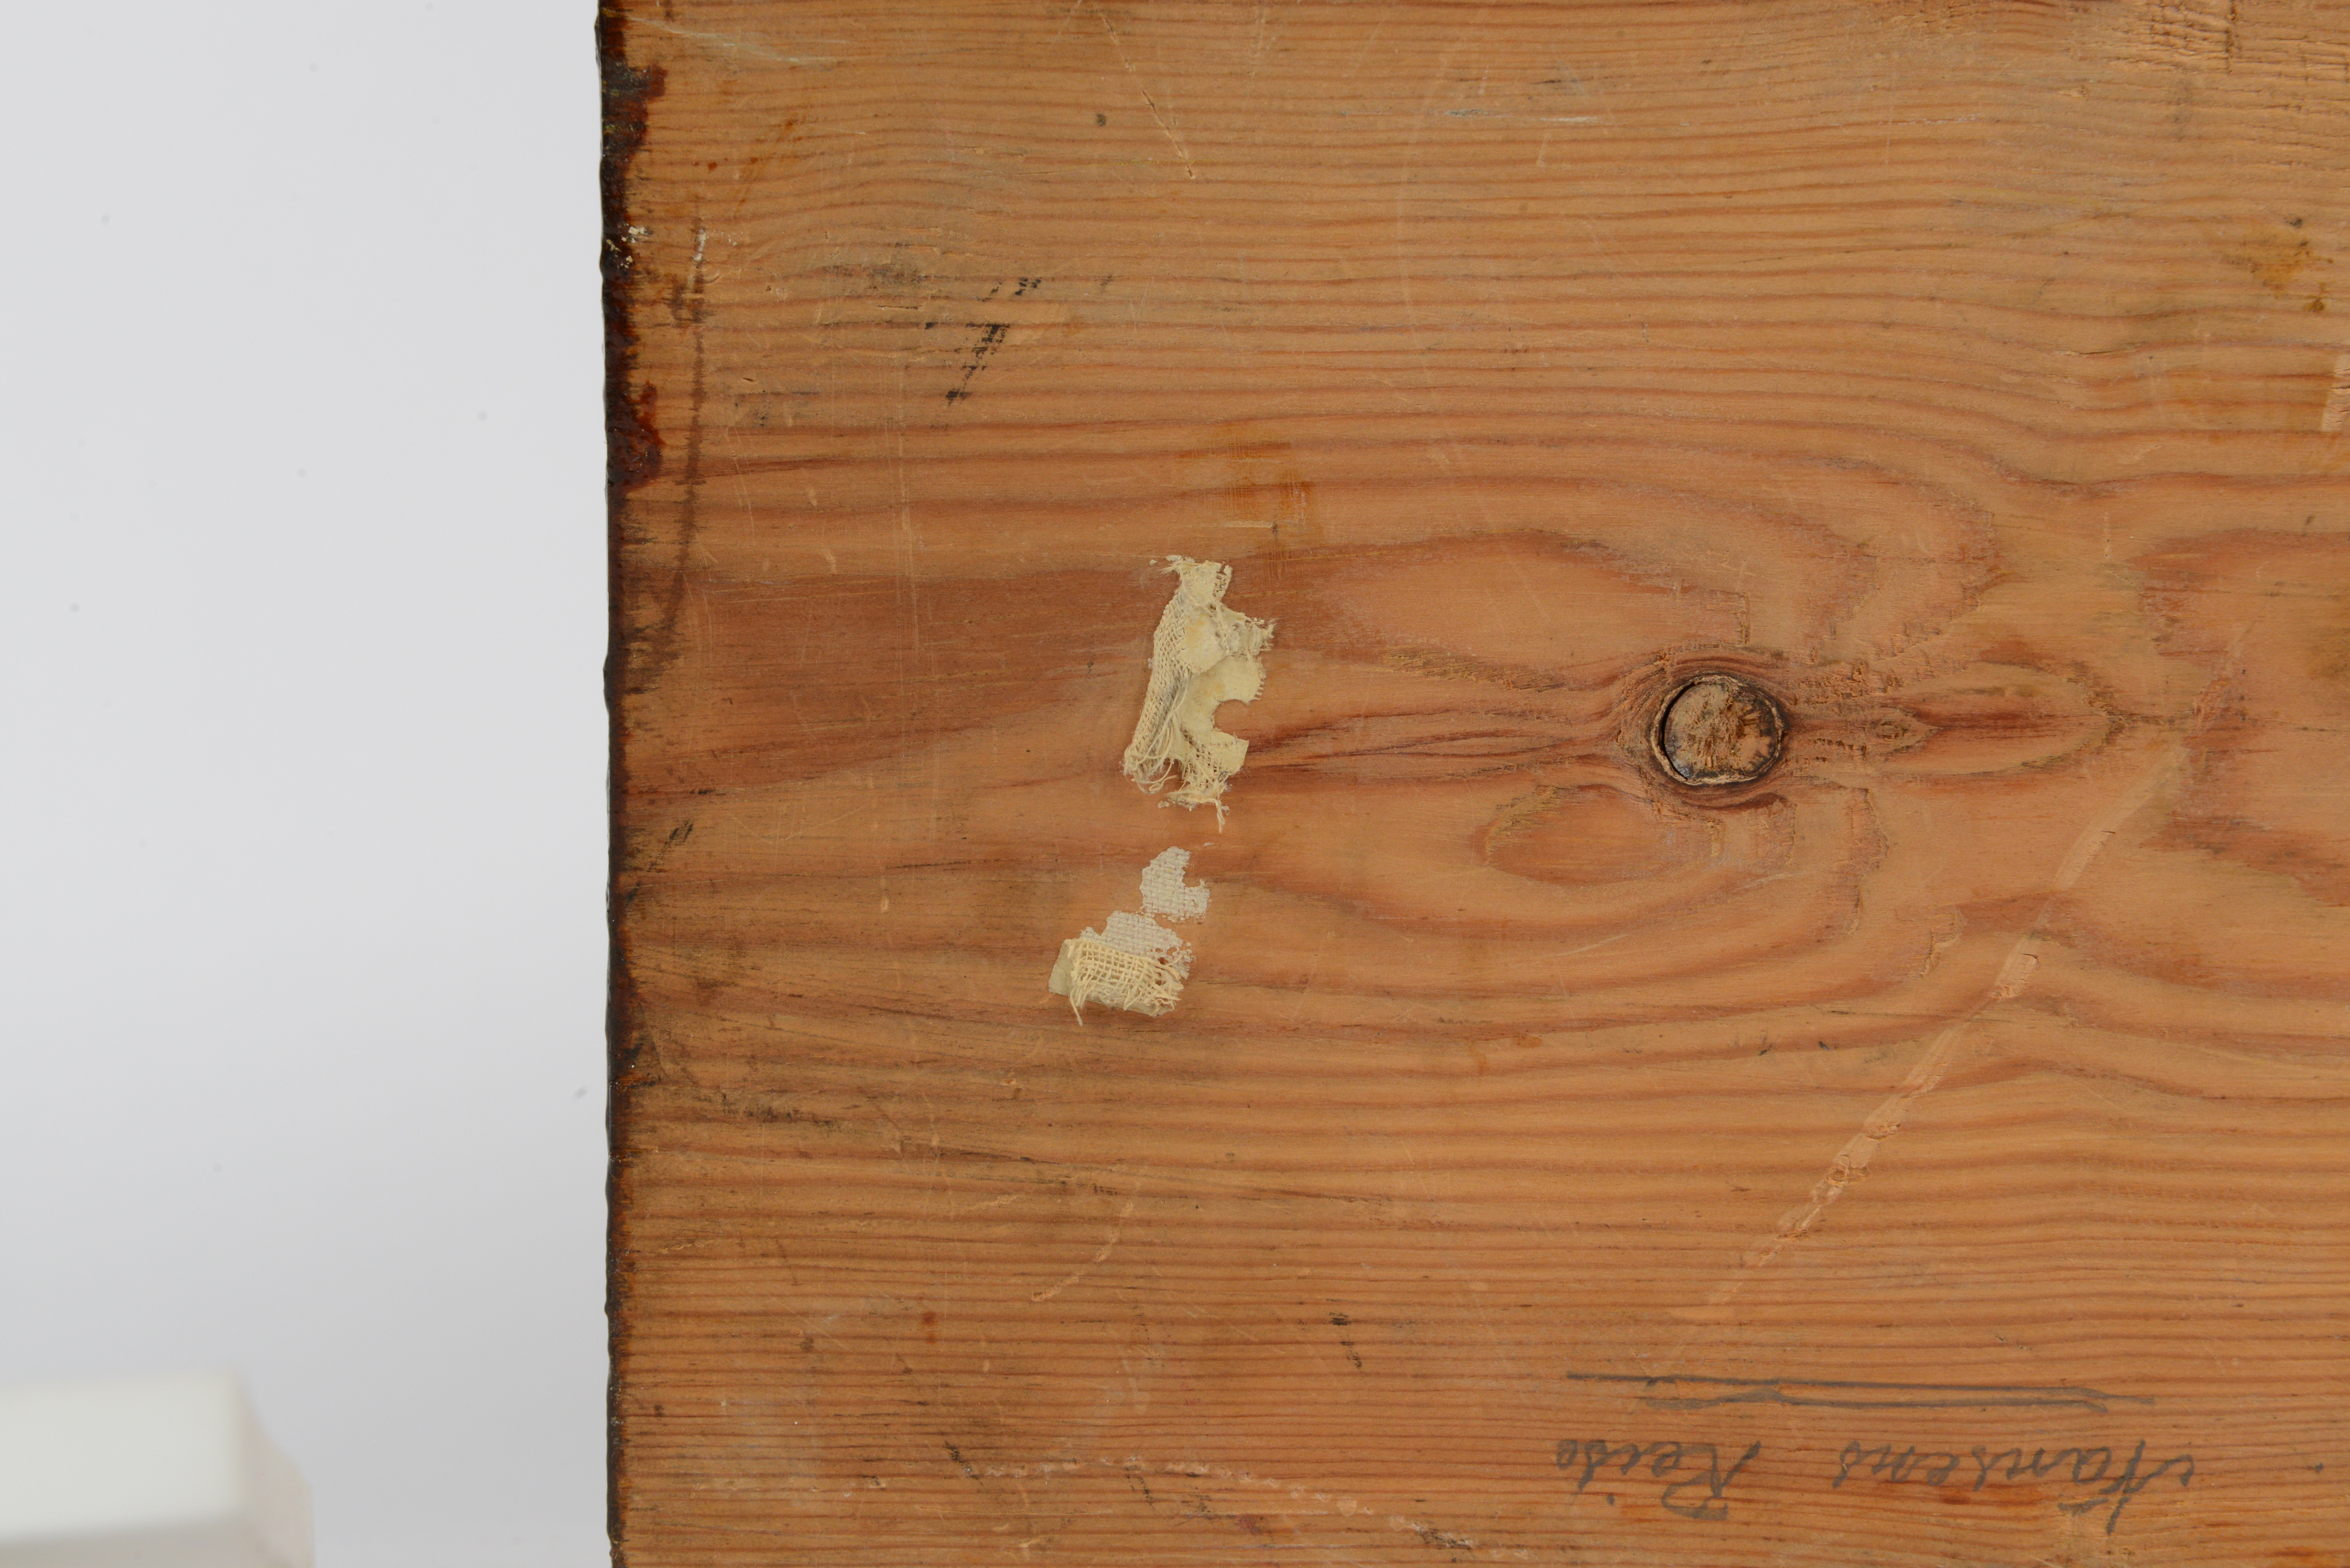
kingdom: Animalia
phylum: Chordata
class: Aves
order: Charadriiformes
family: Laridae
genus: Rhodostethia
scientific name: Rhodostethia rosea
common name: Ross's gull
